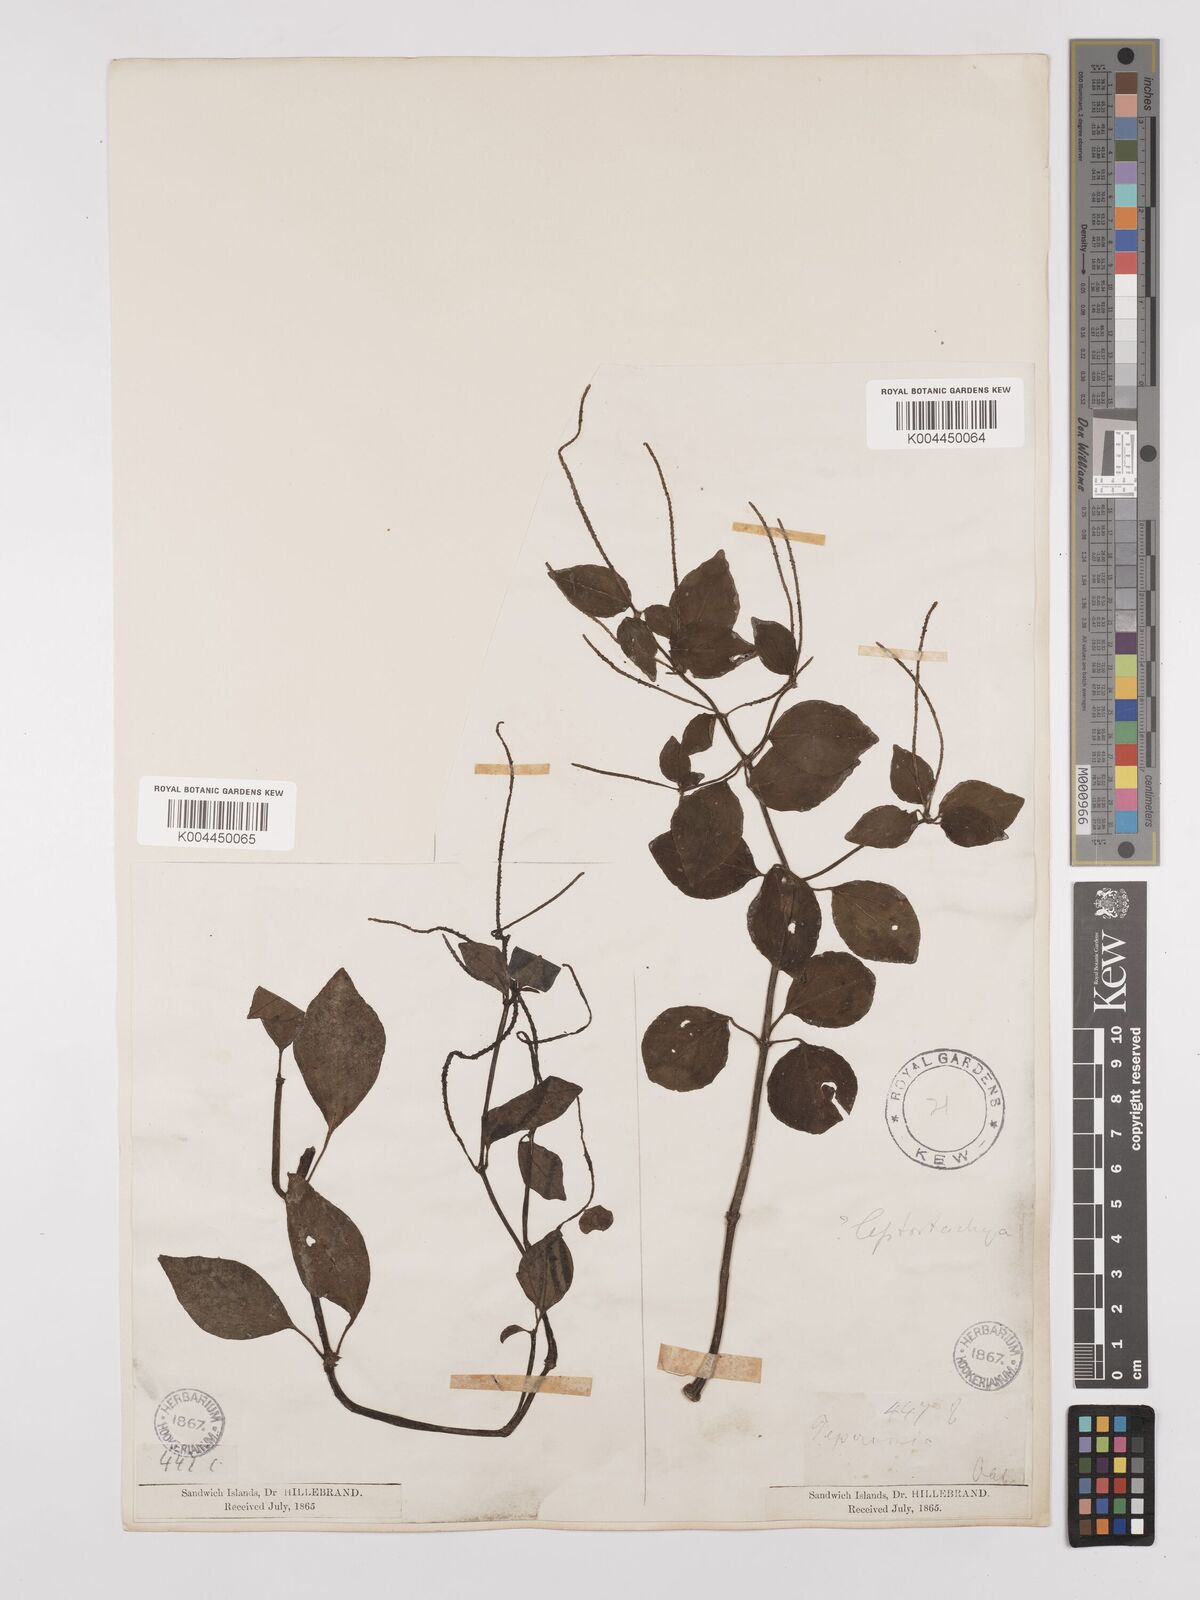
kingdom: Plantae
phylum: Tracheophyta
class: Magnoliopsida
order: Piperales
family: Piperaceae
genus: Peperomia
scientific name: Peperomia leptostachya
